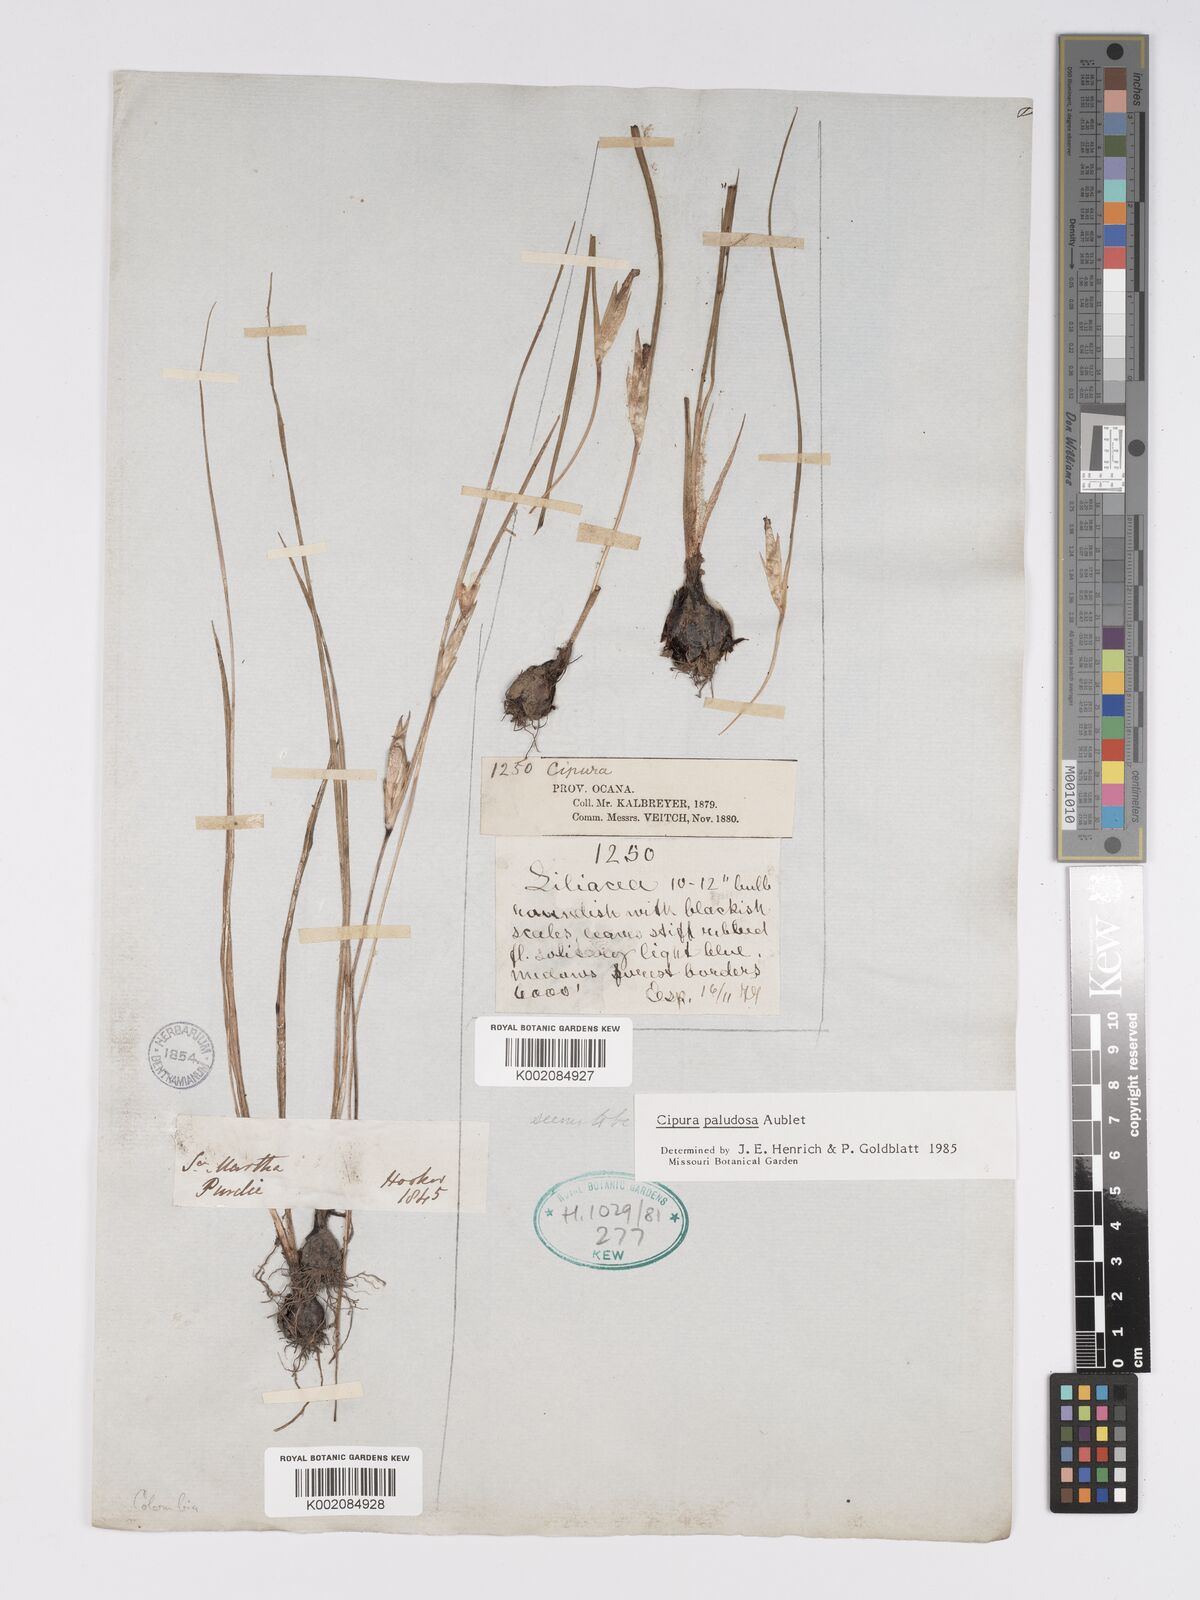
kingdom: Plantae
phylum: Tracheophyta
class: Liliopsida
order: Asparagales
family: Iridaceae
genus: Cipura
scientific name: Cipura paludosa
